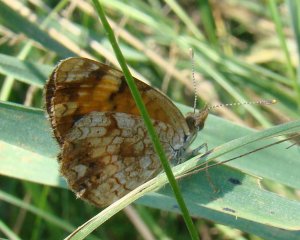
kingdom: Animalia
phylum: Arthropoda
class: Insecta
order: Lepidoptera
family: Nymphalidae
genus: Phyciodes
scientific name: Phyciodes tharos
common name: Northern Crescent
